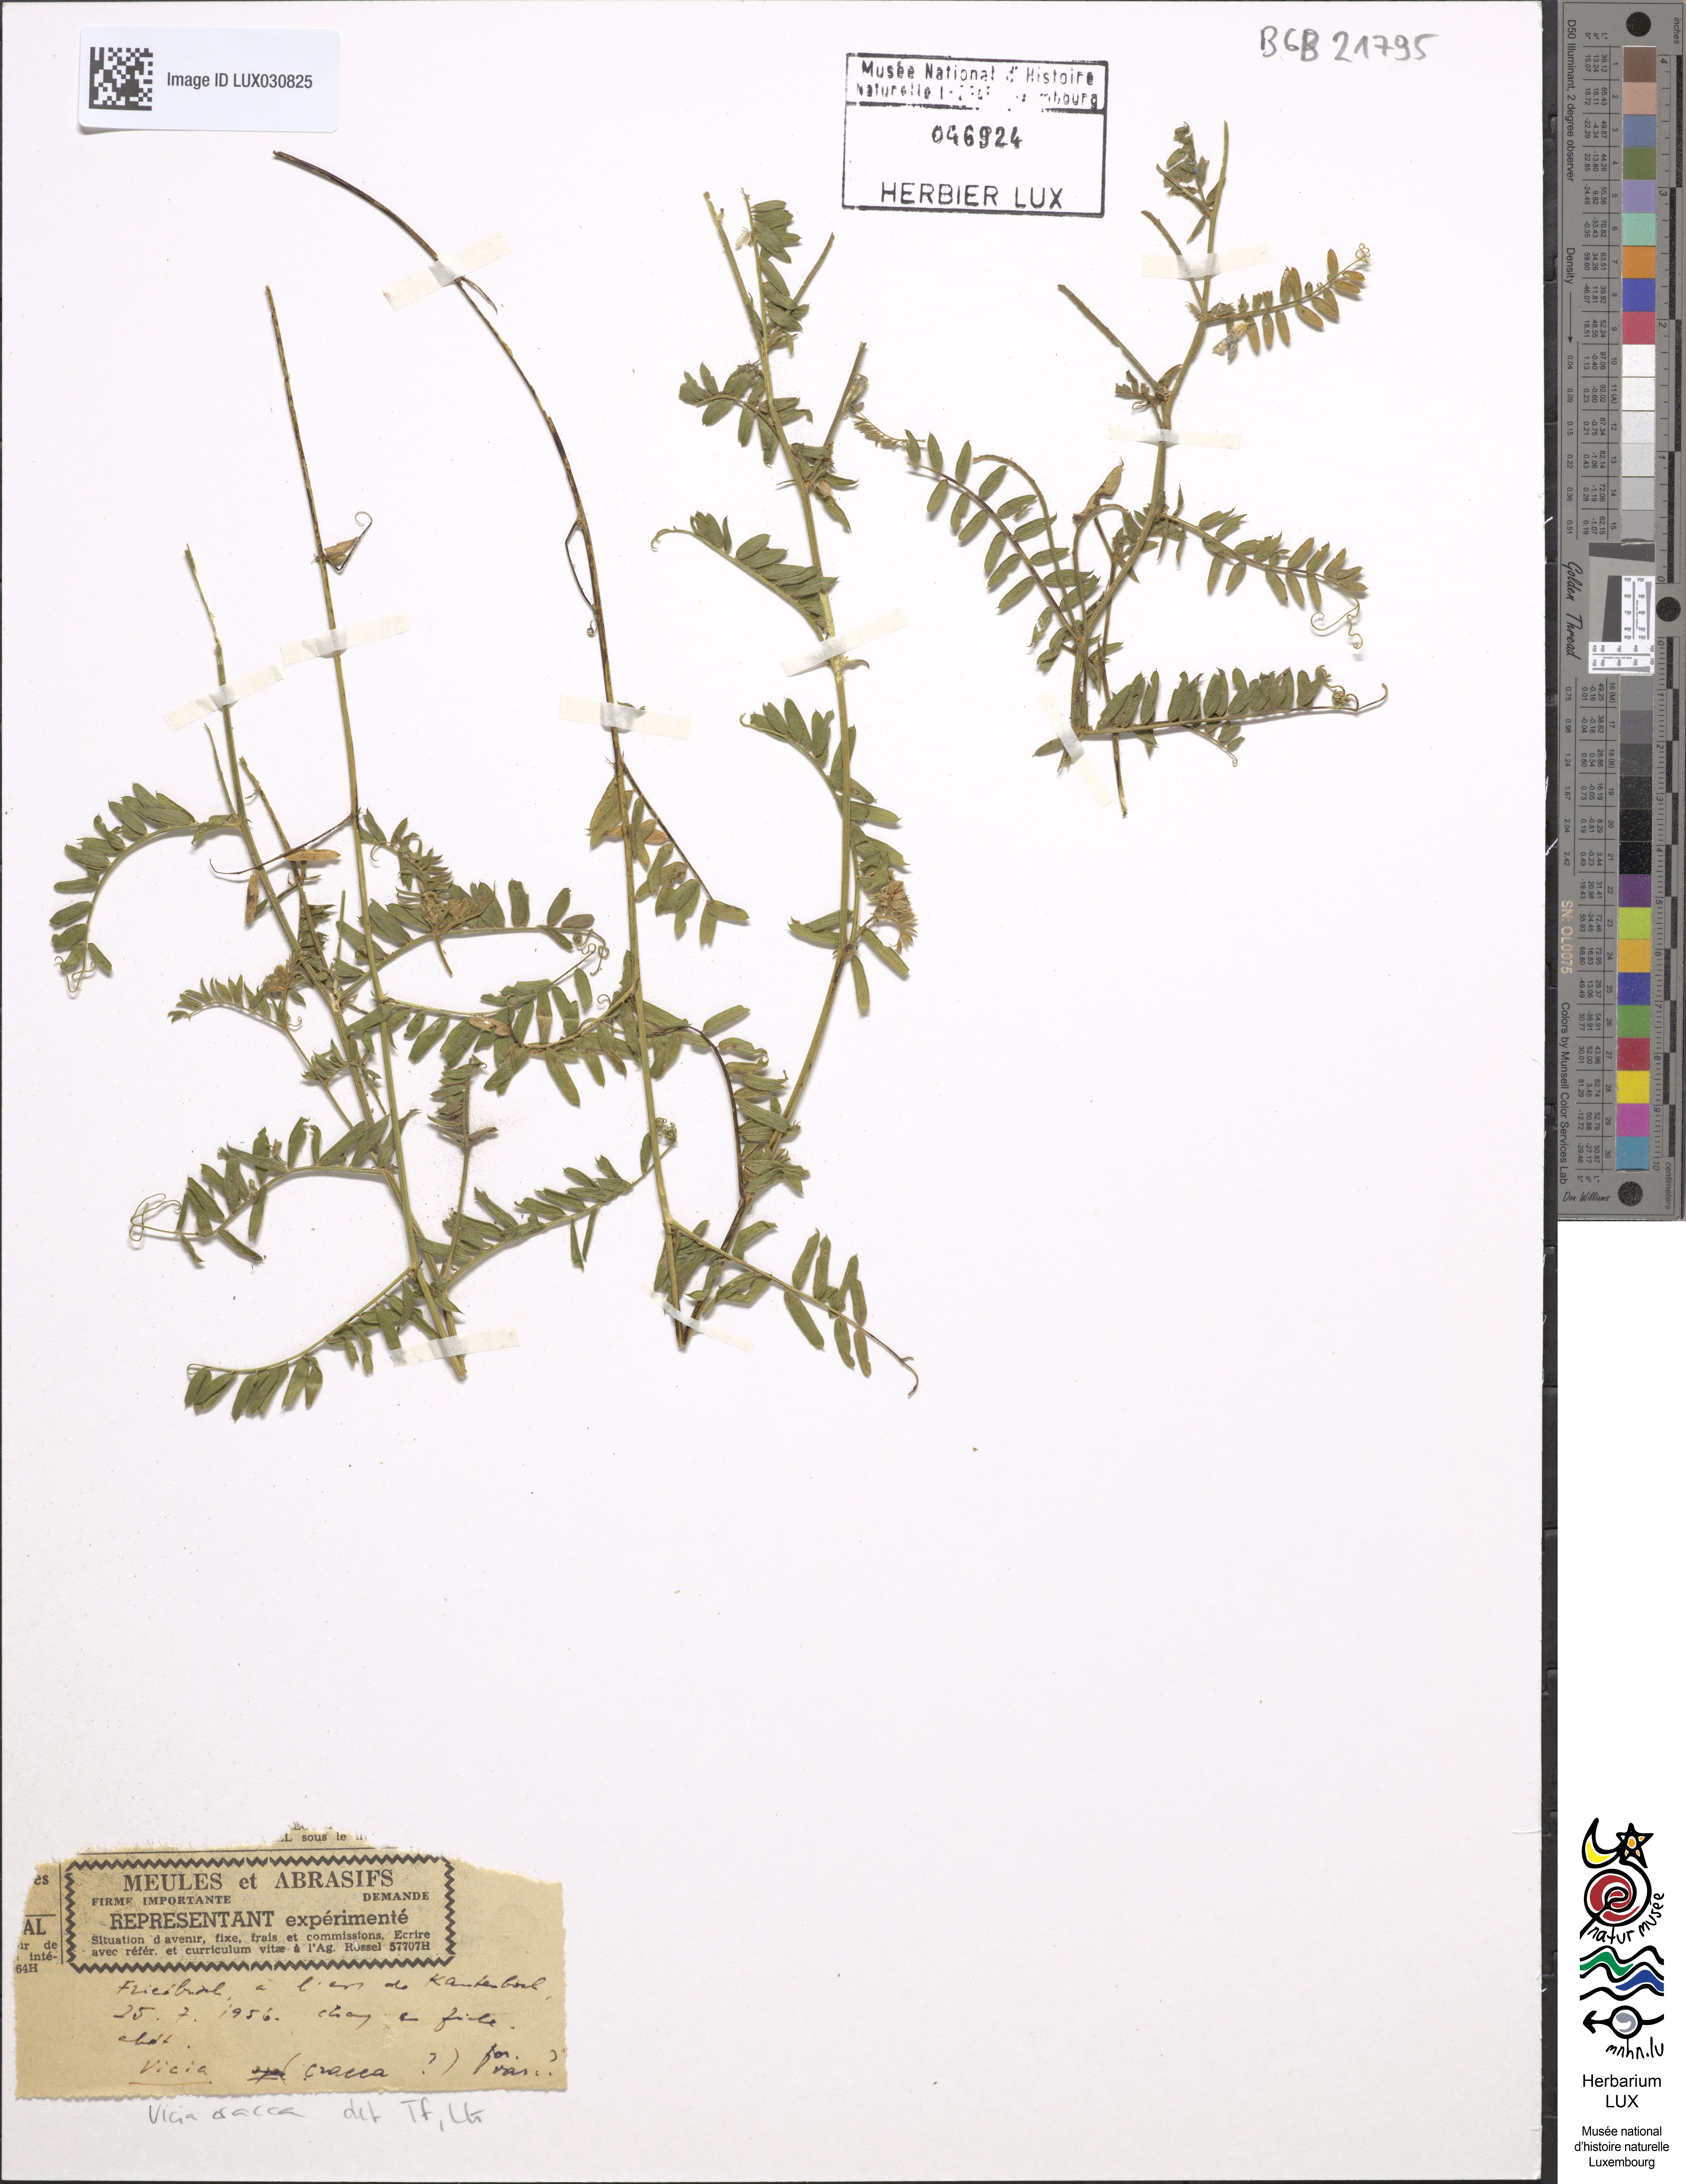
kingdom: Plantae
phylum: Tracheophyta
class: Magnoliopsida
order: Fabales
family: Fabaceae
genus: Vicia
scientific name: Vicia cracca
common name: Bird vetch
